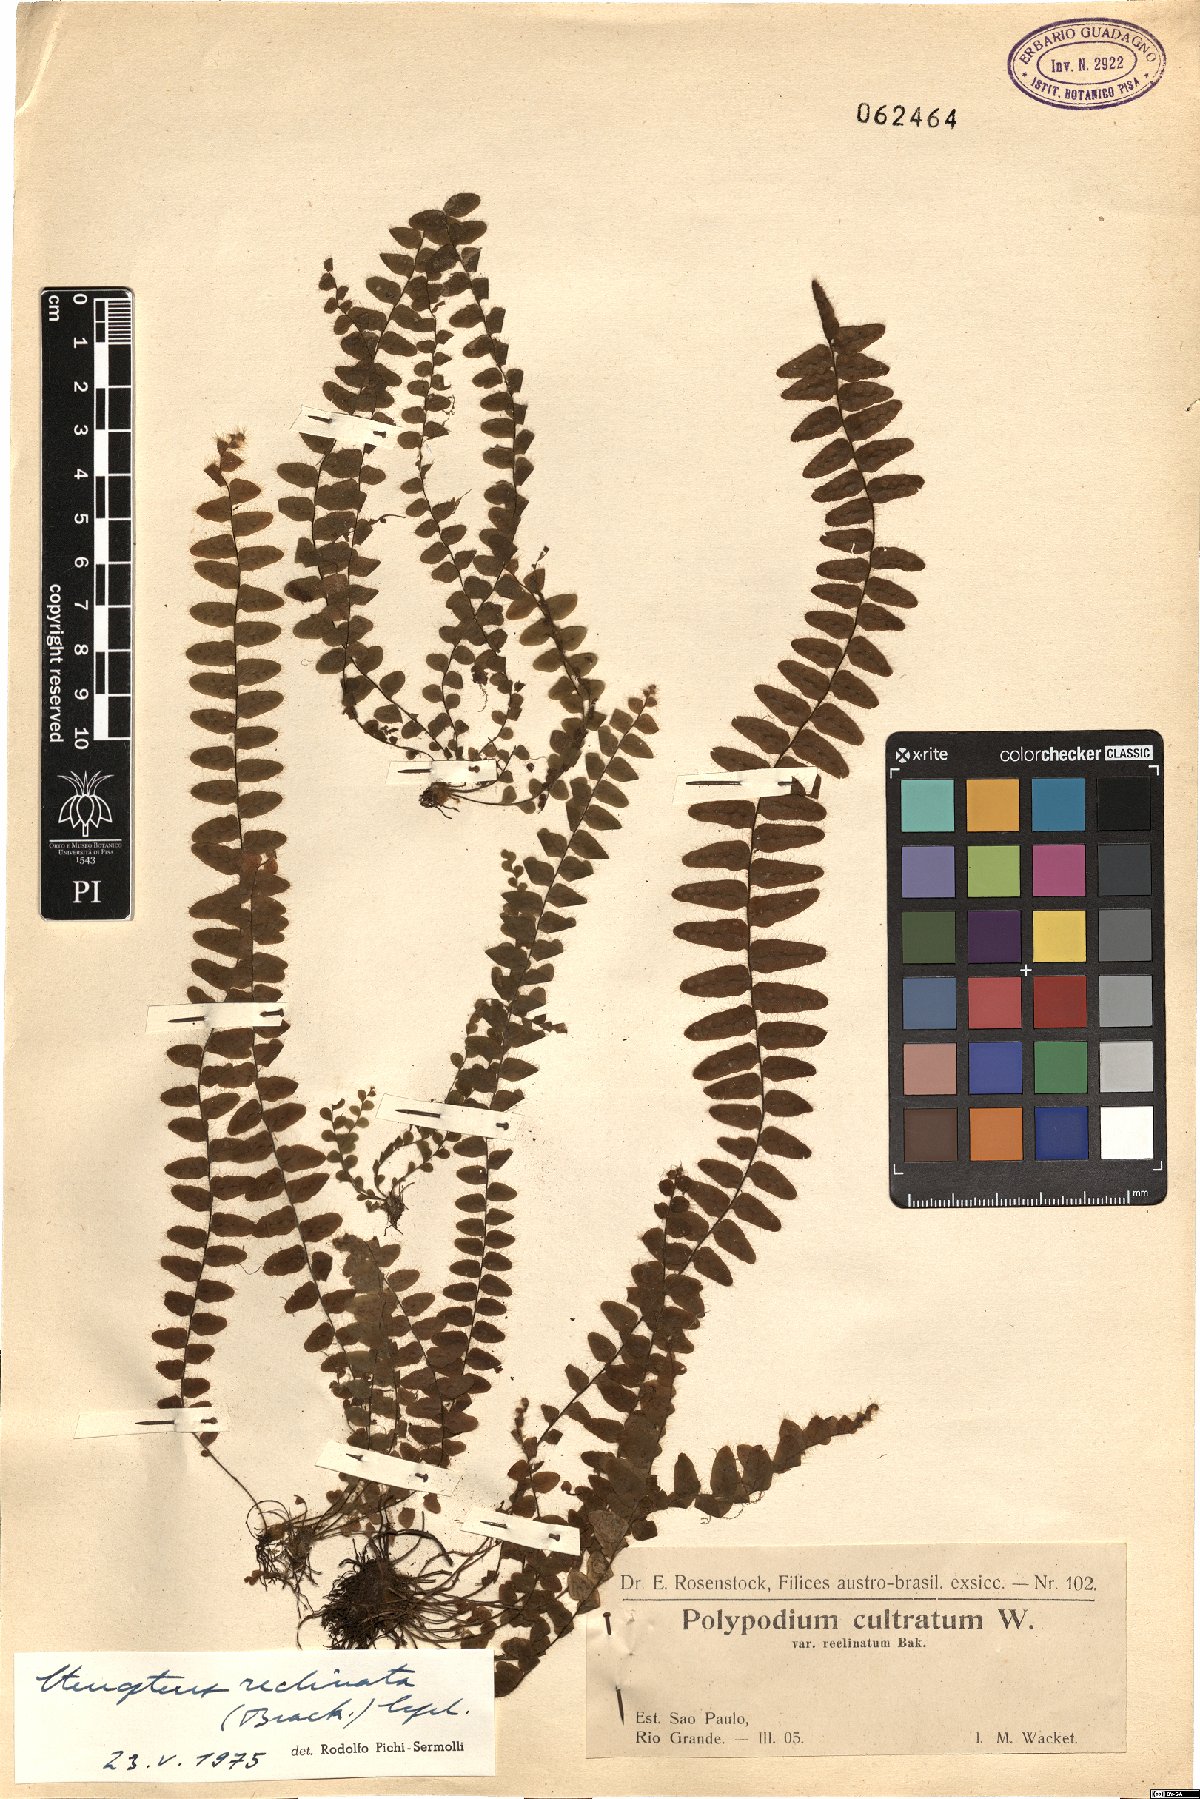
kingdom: Plantae
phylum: Tracheophyta
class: Polypodiopsida
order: Polypodiales
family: Polypodiaceae
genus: Alansmia
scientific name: Alansmia reclinata
